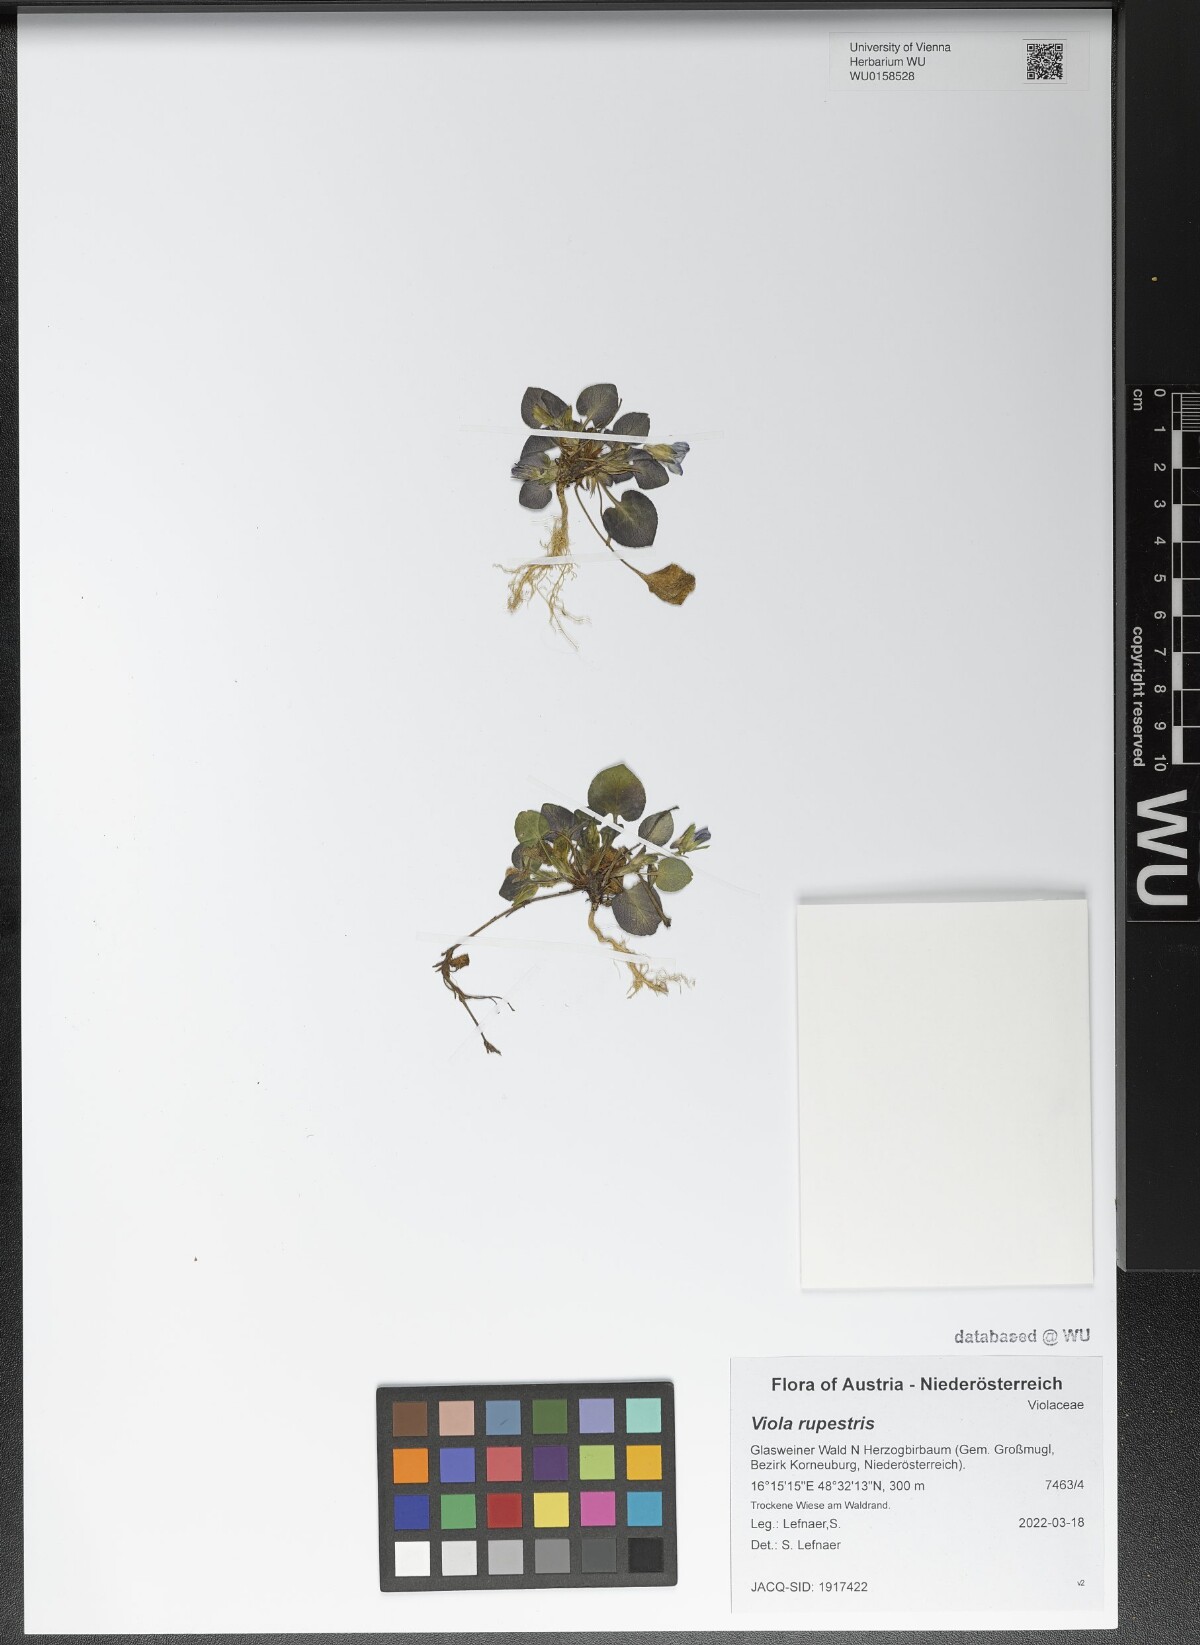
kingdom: Plantae
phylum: Tracheophyta
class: Magnoliopsida
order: Malpighiales
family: Violaceae
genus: Viola
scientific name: Viola rupestris
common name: Teesdale violet
